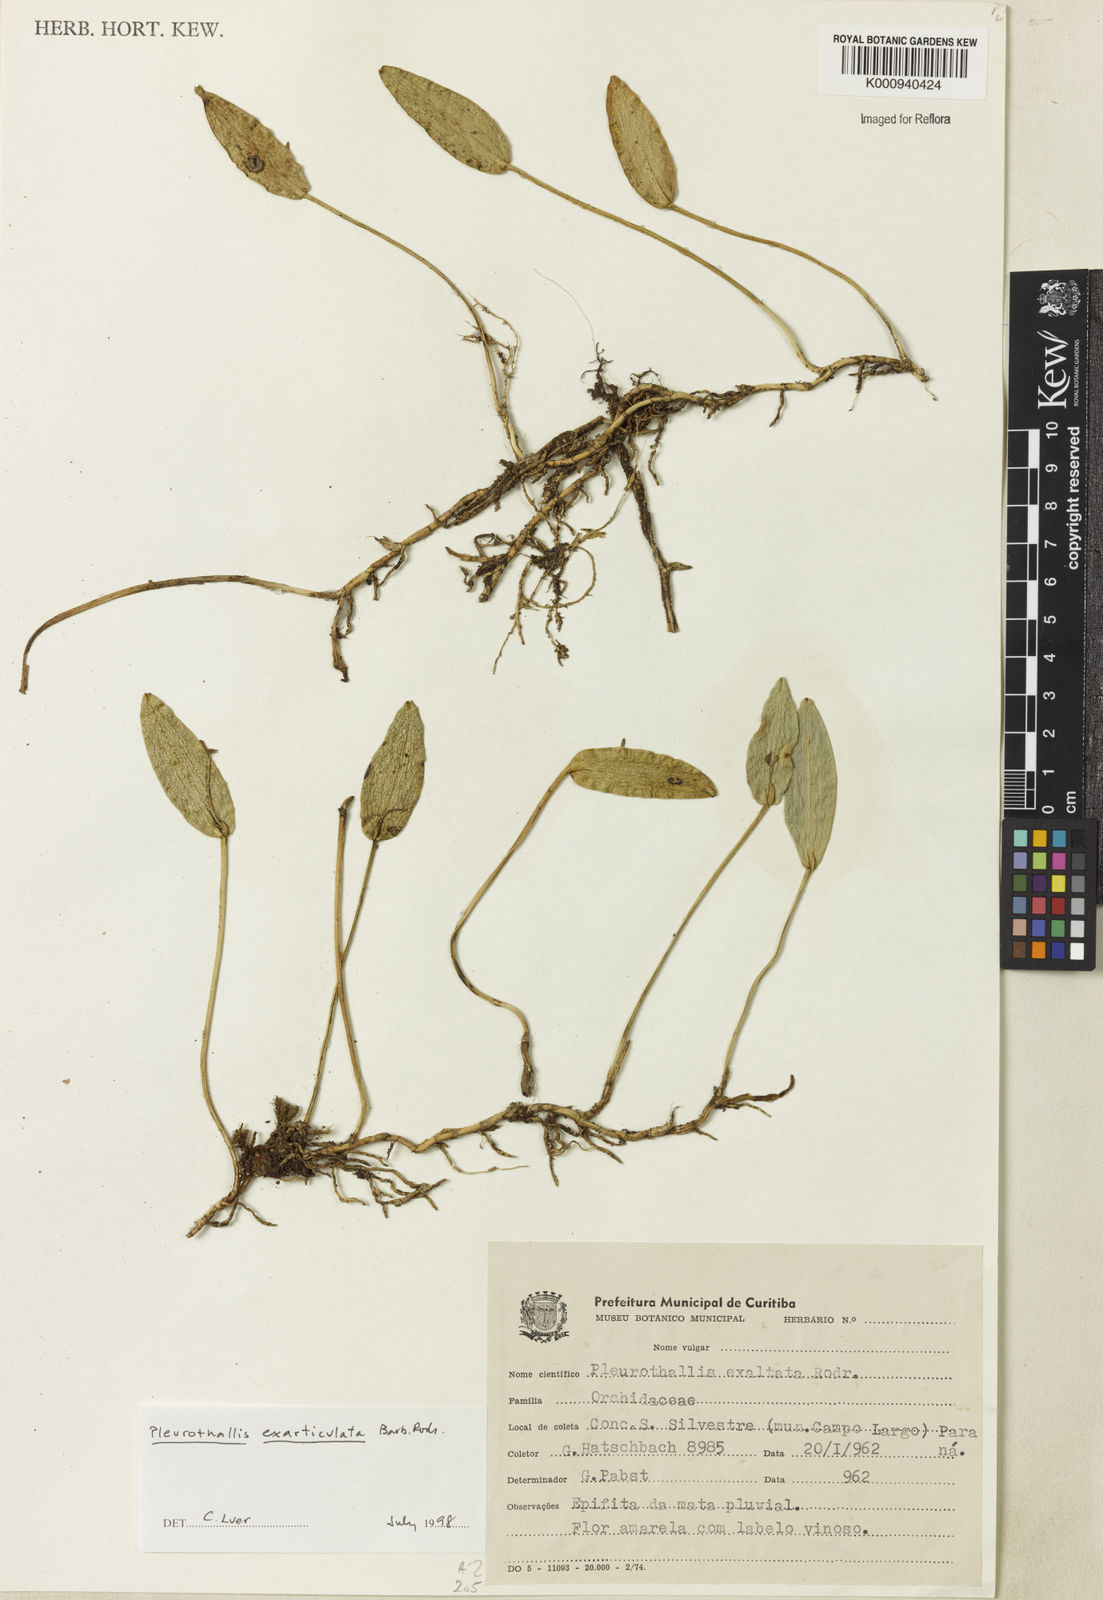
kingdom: Plantae
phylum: Tracheophyta
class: Liliopsida
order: Asparagales
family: Orchidaceae
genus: Acianthera
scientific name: Acianthera exarticulata
